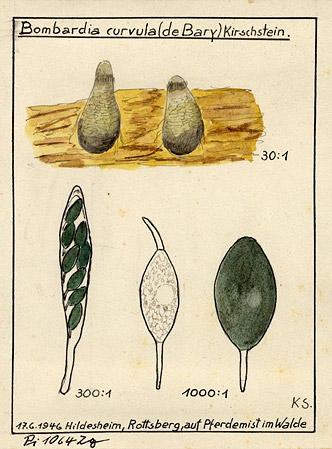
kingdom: Fungi
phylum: Ascomycota
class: Sordariomycetes
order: Sordariales
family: Neoschizotheciaceae
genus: Neoschizothecium
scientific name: Neoschizothecium conicum
